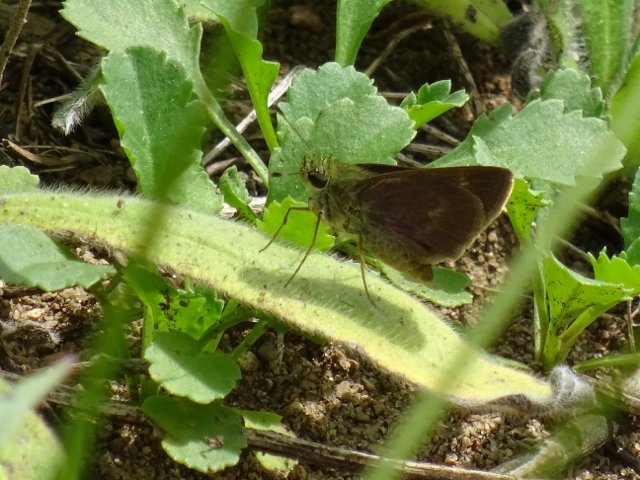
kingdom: Animalia
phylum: Arthropoda
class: Insecta
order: Lepidoptera
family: Hesperiidae
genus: Polites
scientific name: Polites egeremet
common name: Northern Broken-Dash
